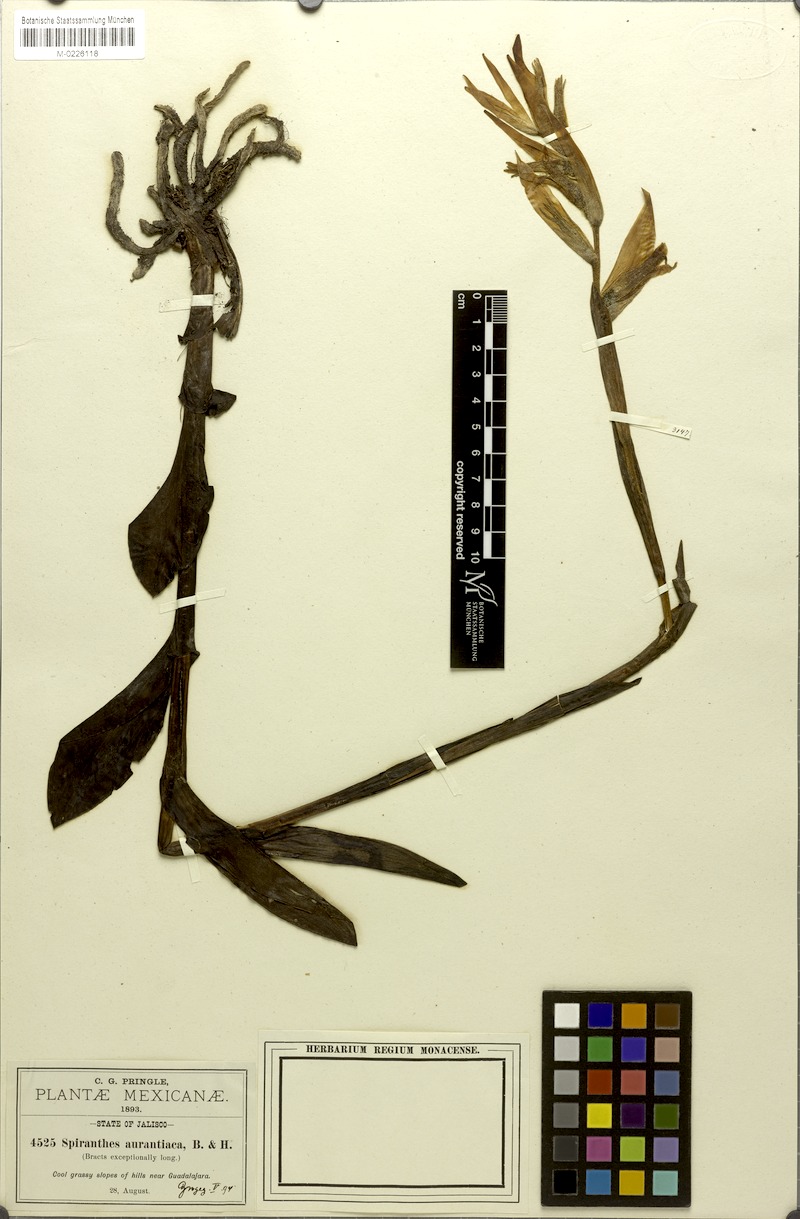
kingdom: Plantae
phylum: Tracheophyta
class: Liliopsida
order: Asparagales
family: Orchidaceae
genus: Dichromanthus
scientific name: Dichromanthus aurantiacus
